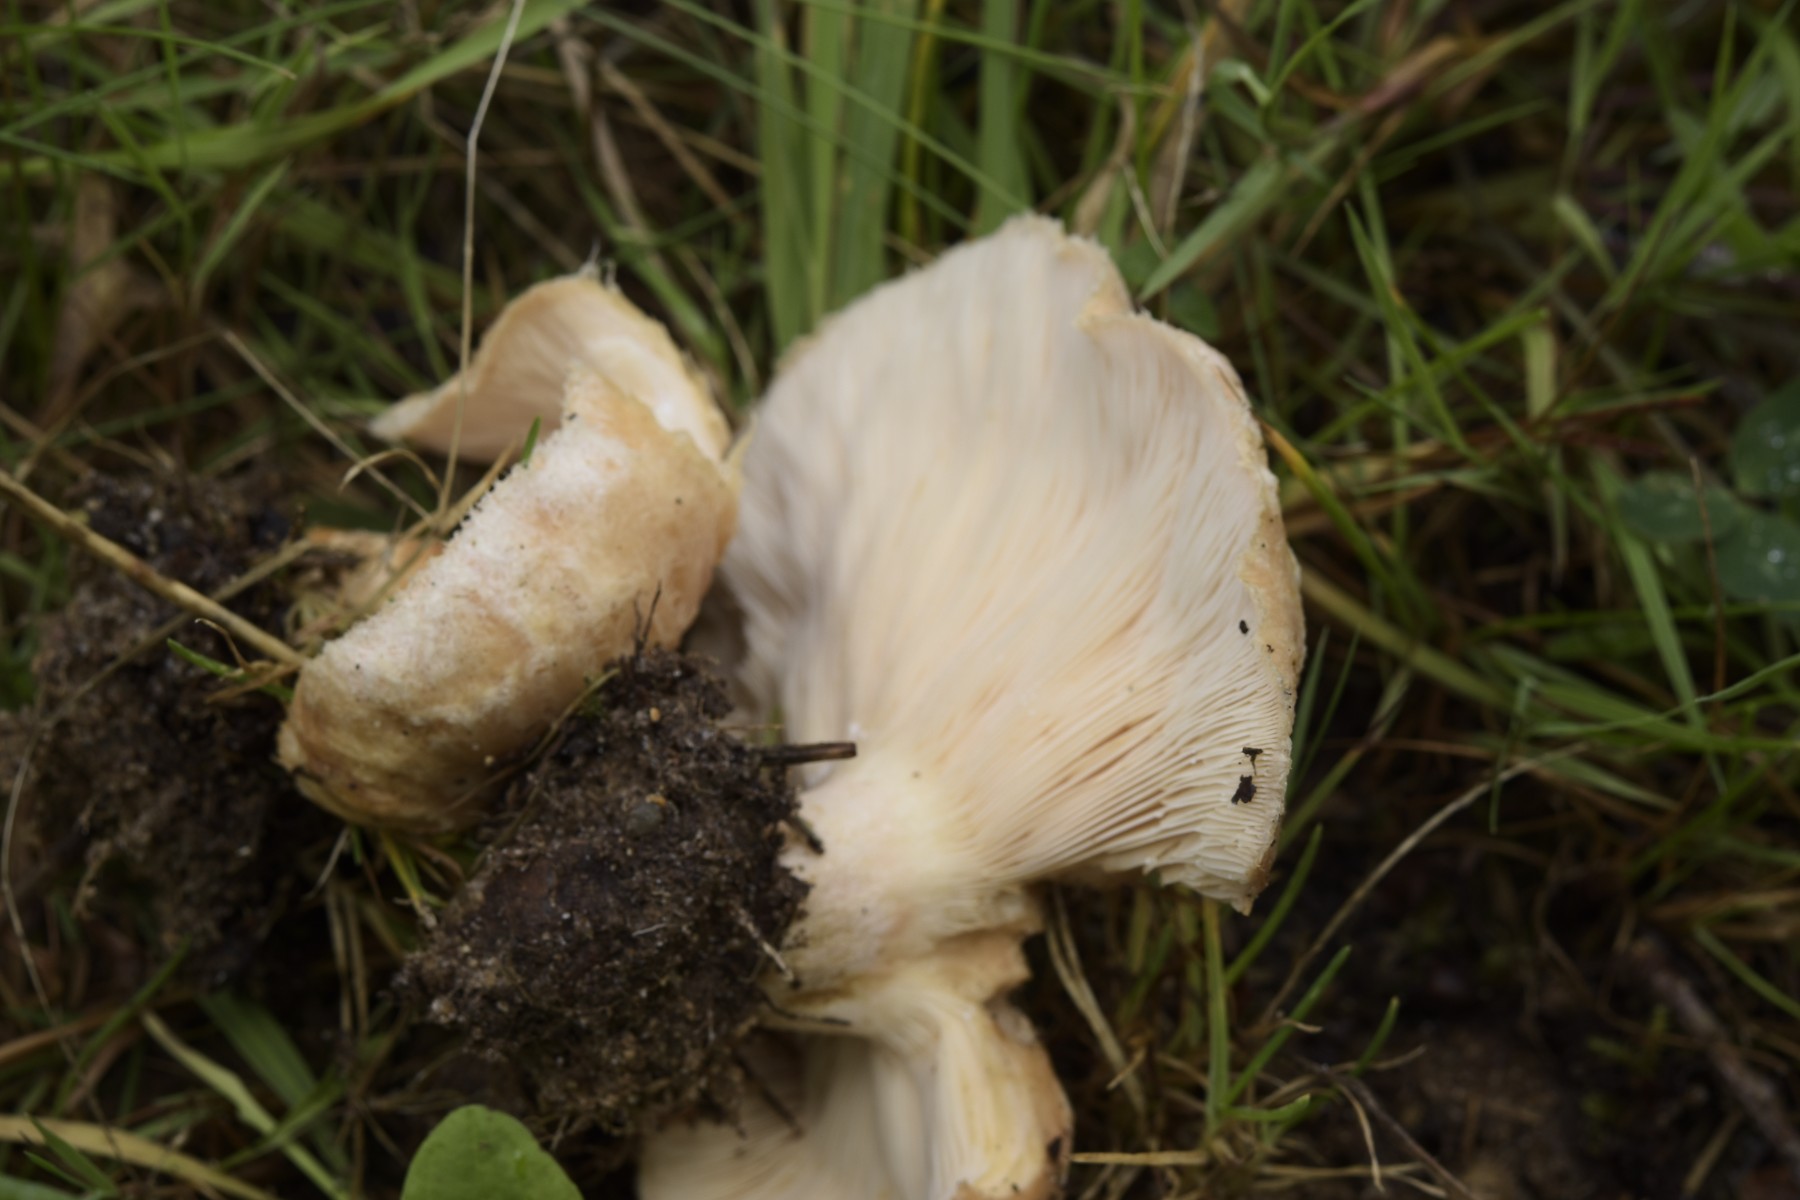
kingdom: Fungi
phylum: Basidiomycota
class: Agaricomycetes
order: Russulales
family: Russulaceae
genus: Lactarius
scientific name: Lactarius pubescens
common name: dunet mælkehat
